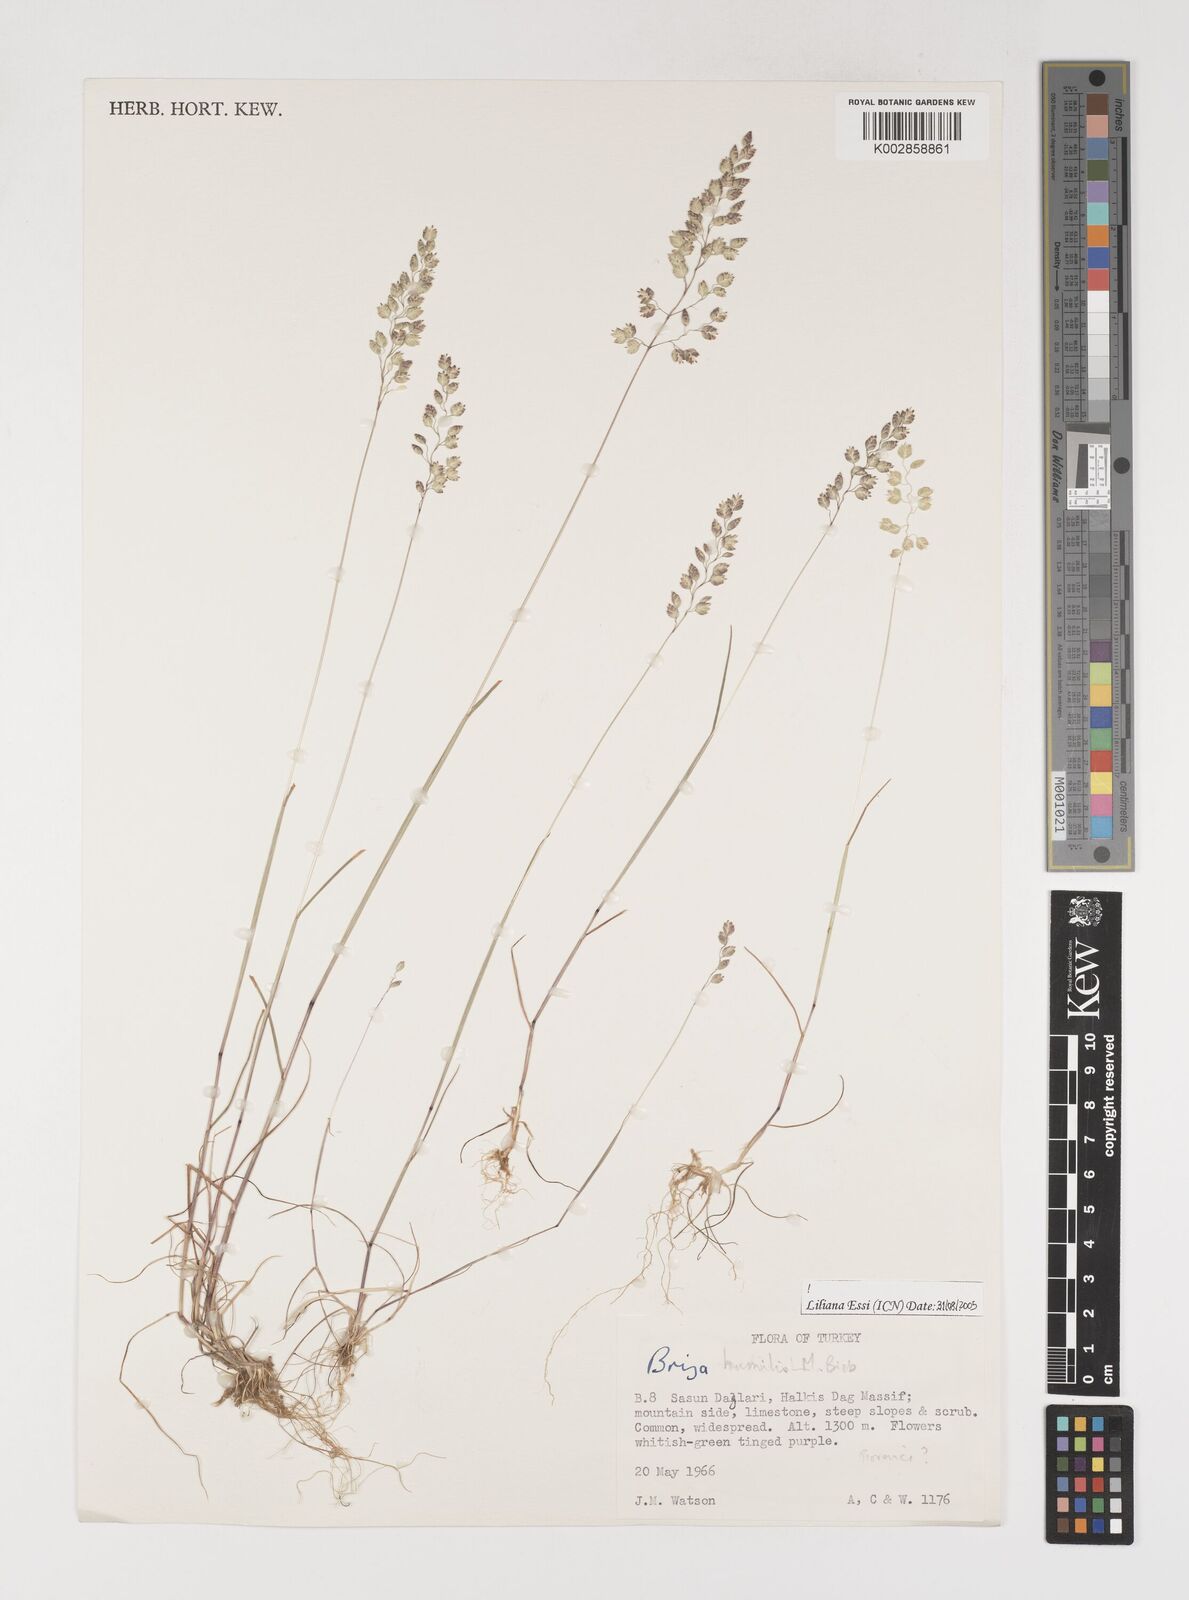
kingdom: Plantae
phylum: Tracheophyta
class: Liliopsida
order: Poales
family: Poaceae
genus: Briza
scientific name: Briza humilis
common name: Spiked quaking grass
